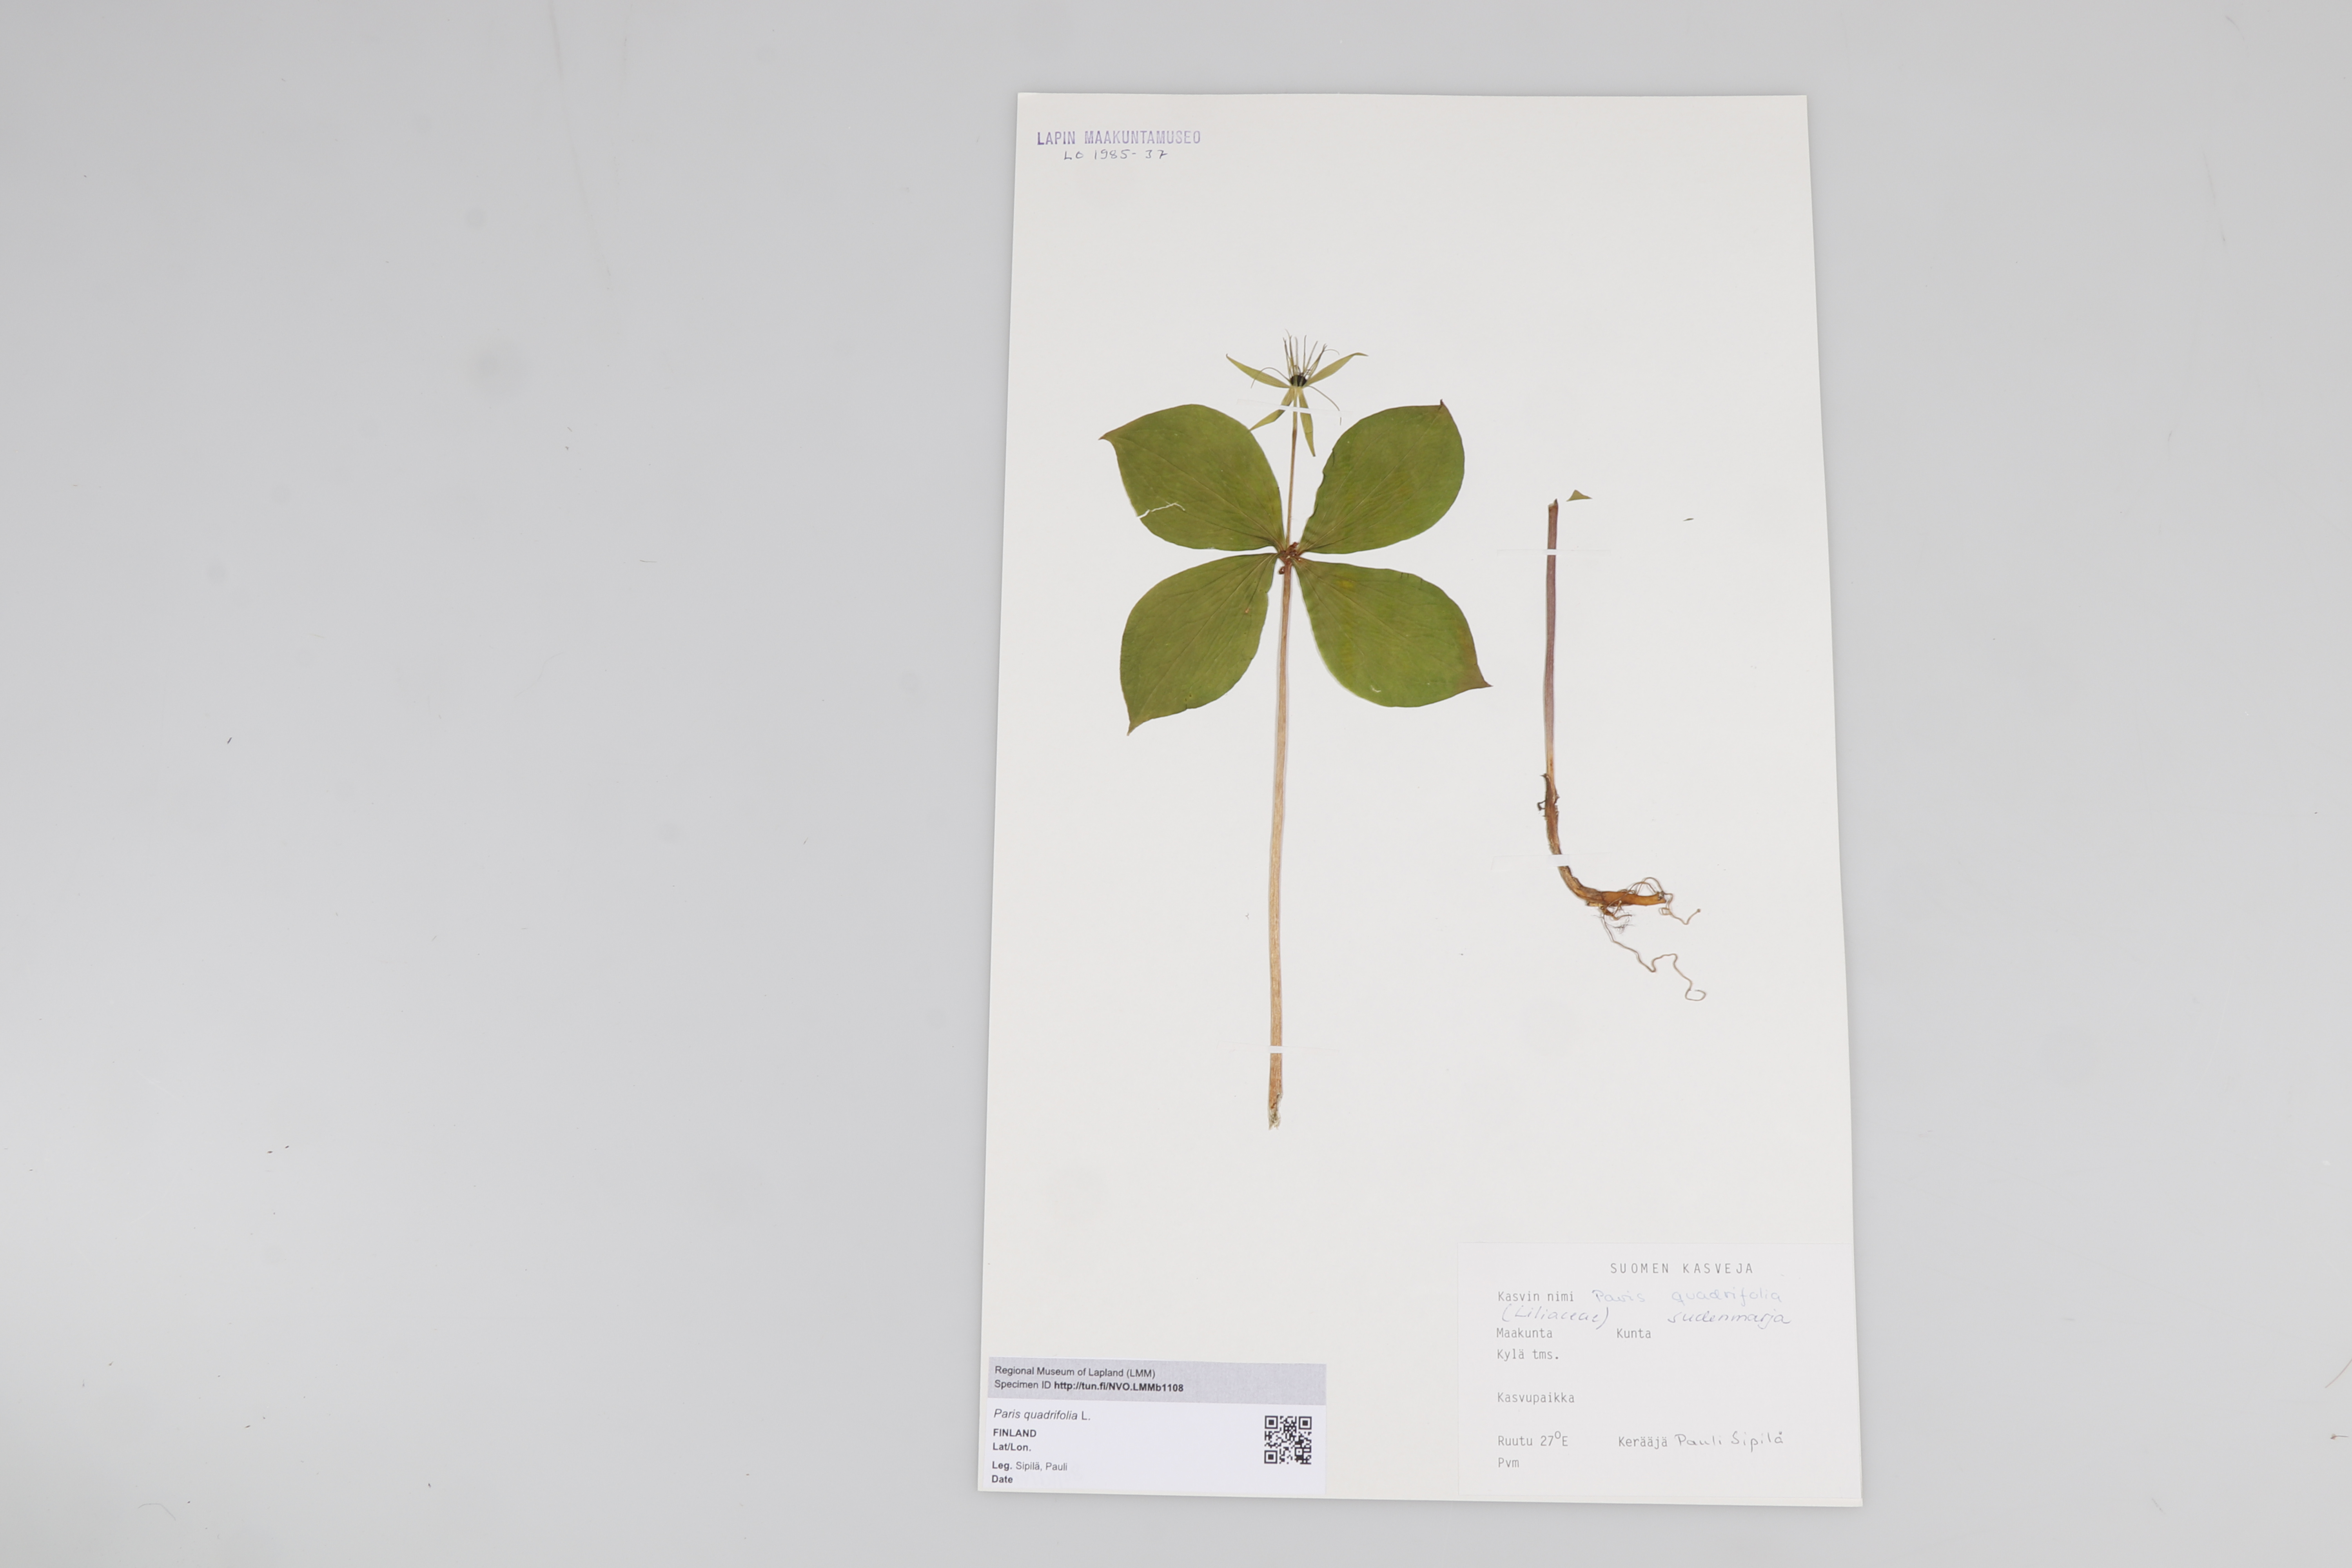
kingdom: Plantae
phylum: Tracheophyta
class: Liliopsida
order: Liliales
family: Melanthiaceae
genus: Paris
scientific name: Paris quadrifolia
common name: Herb-paris
